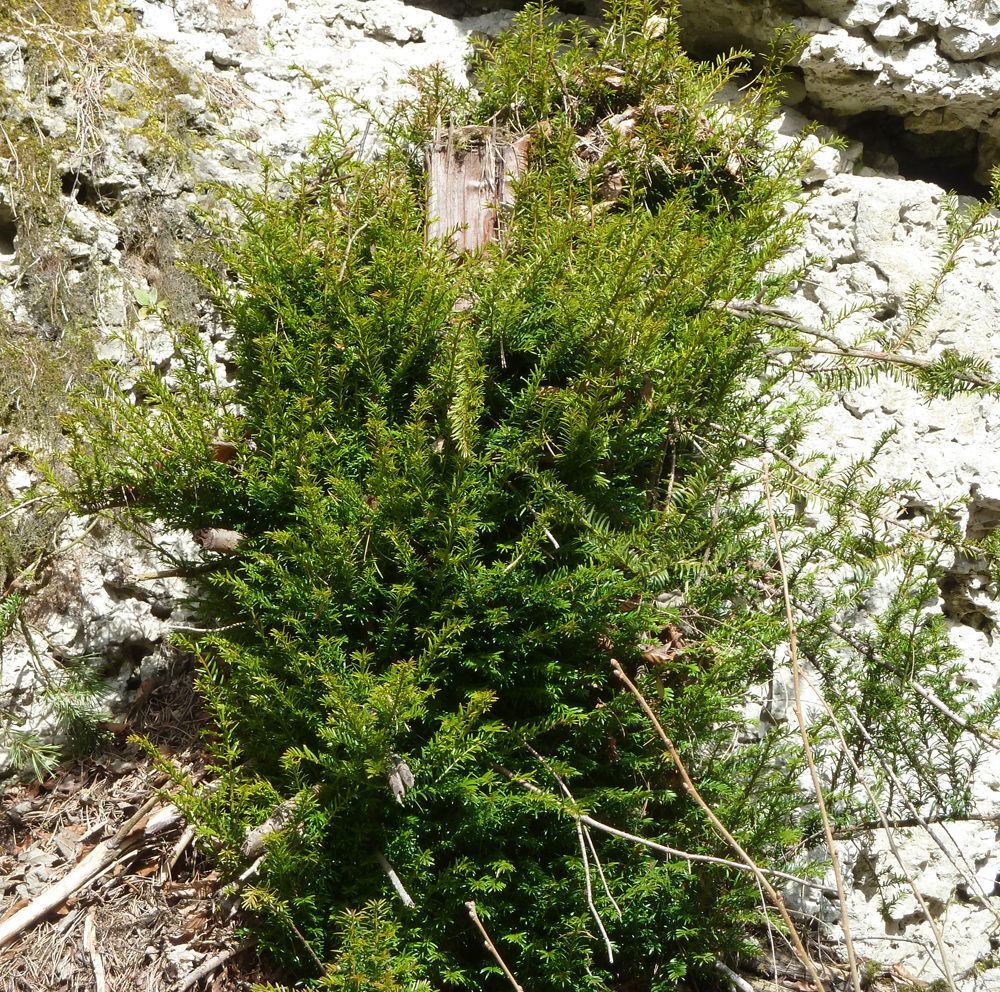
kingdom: Plantae
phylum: Tracheophyta
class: Pinopsida
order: Pinales
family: Taxaceae
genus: Taxus
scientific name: Taxus baccata
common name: Yew
